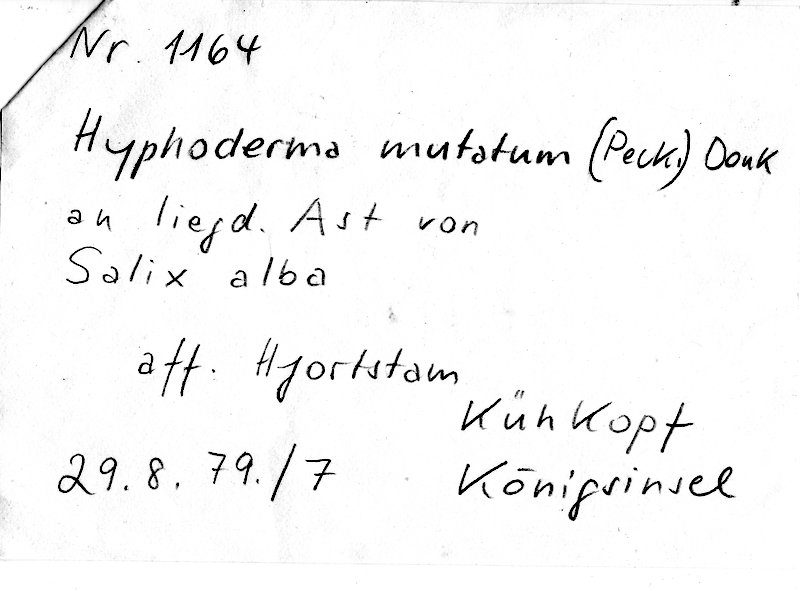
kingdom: Plantae
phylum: Tracheophyta
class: Magnoliopsida
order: Malpighiales
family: Salicaceae
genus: Salix
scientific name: Salix alba
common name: White willow
